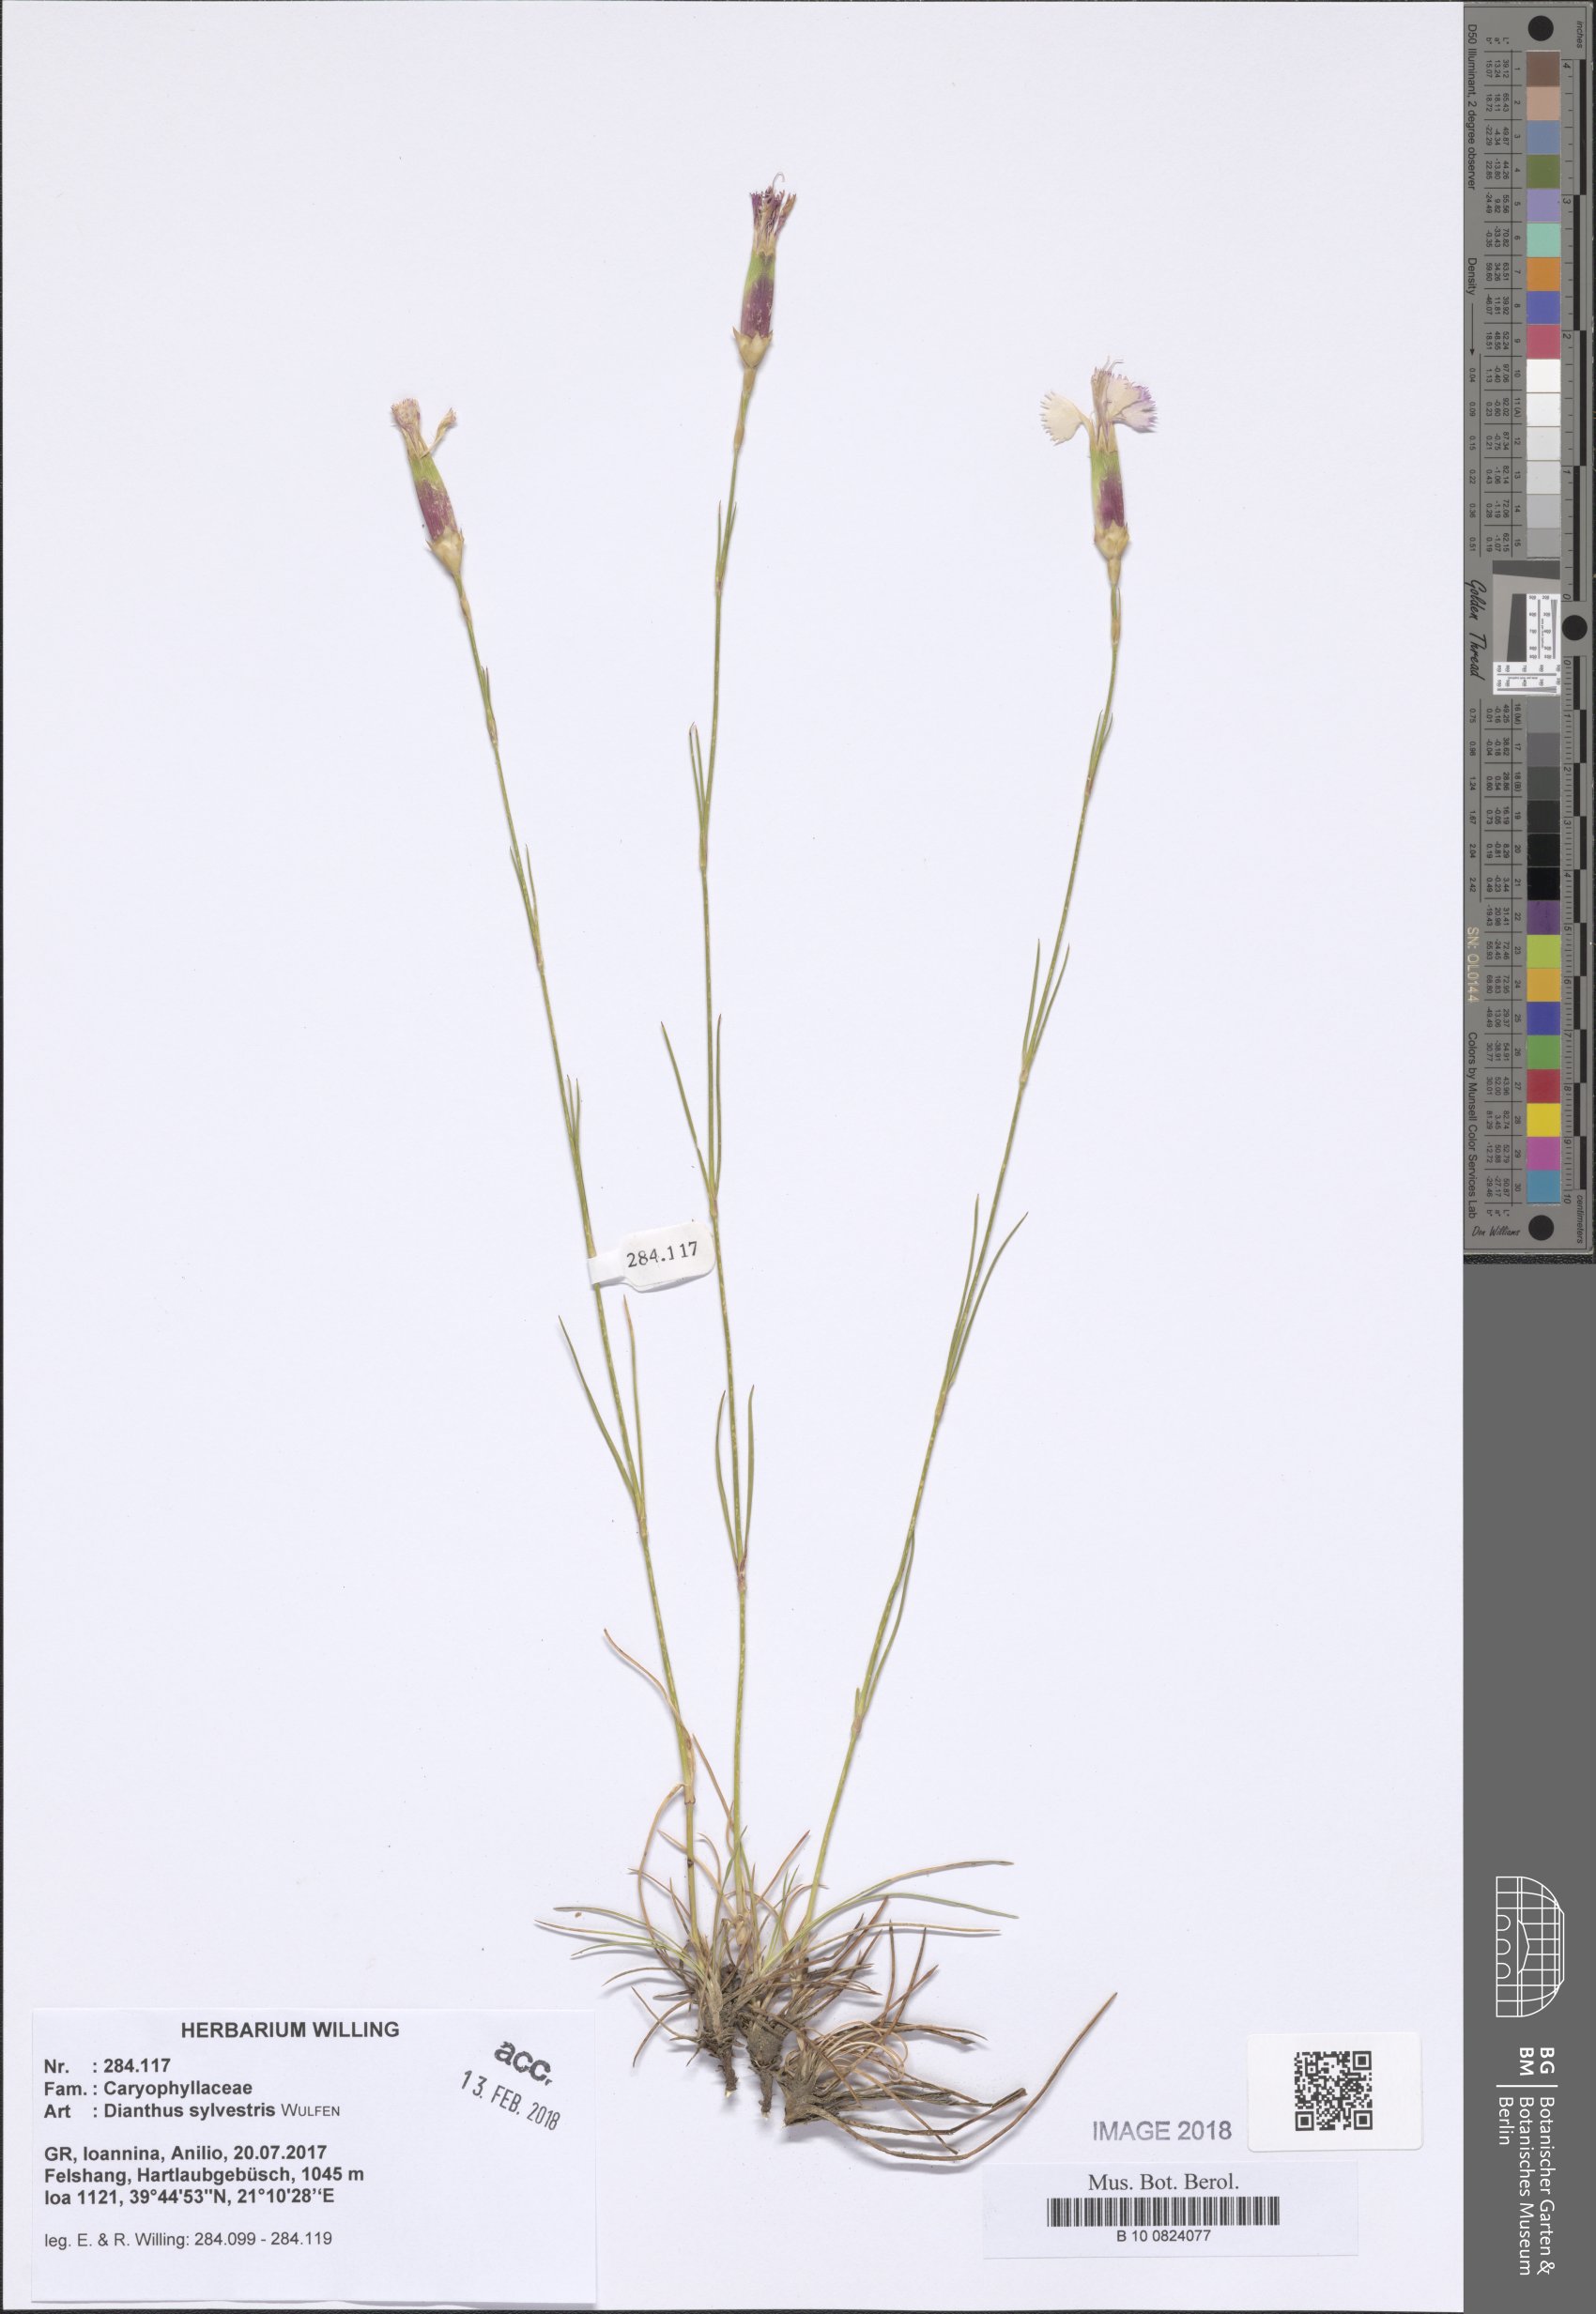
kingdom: Plantae
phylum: Tracheophyta
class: Magnoliopsida
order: Caryophyllales
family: Caryophyllaceae
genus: Dianthus
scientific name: Dianthus sylvestris
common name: Wood pink
